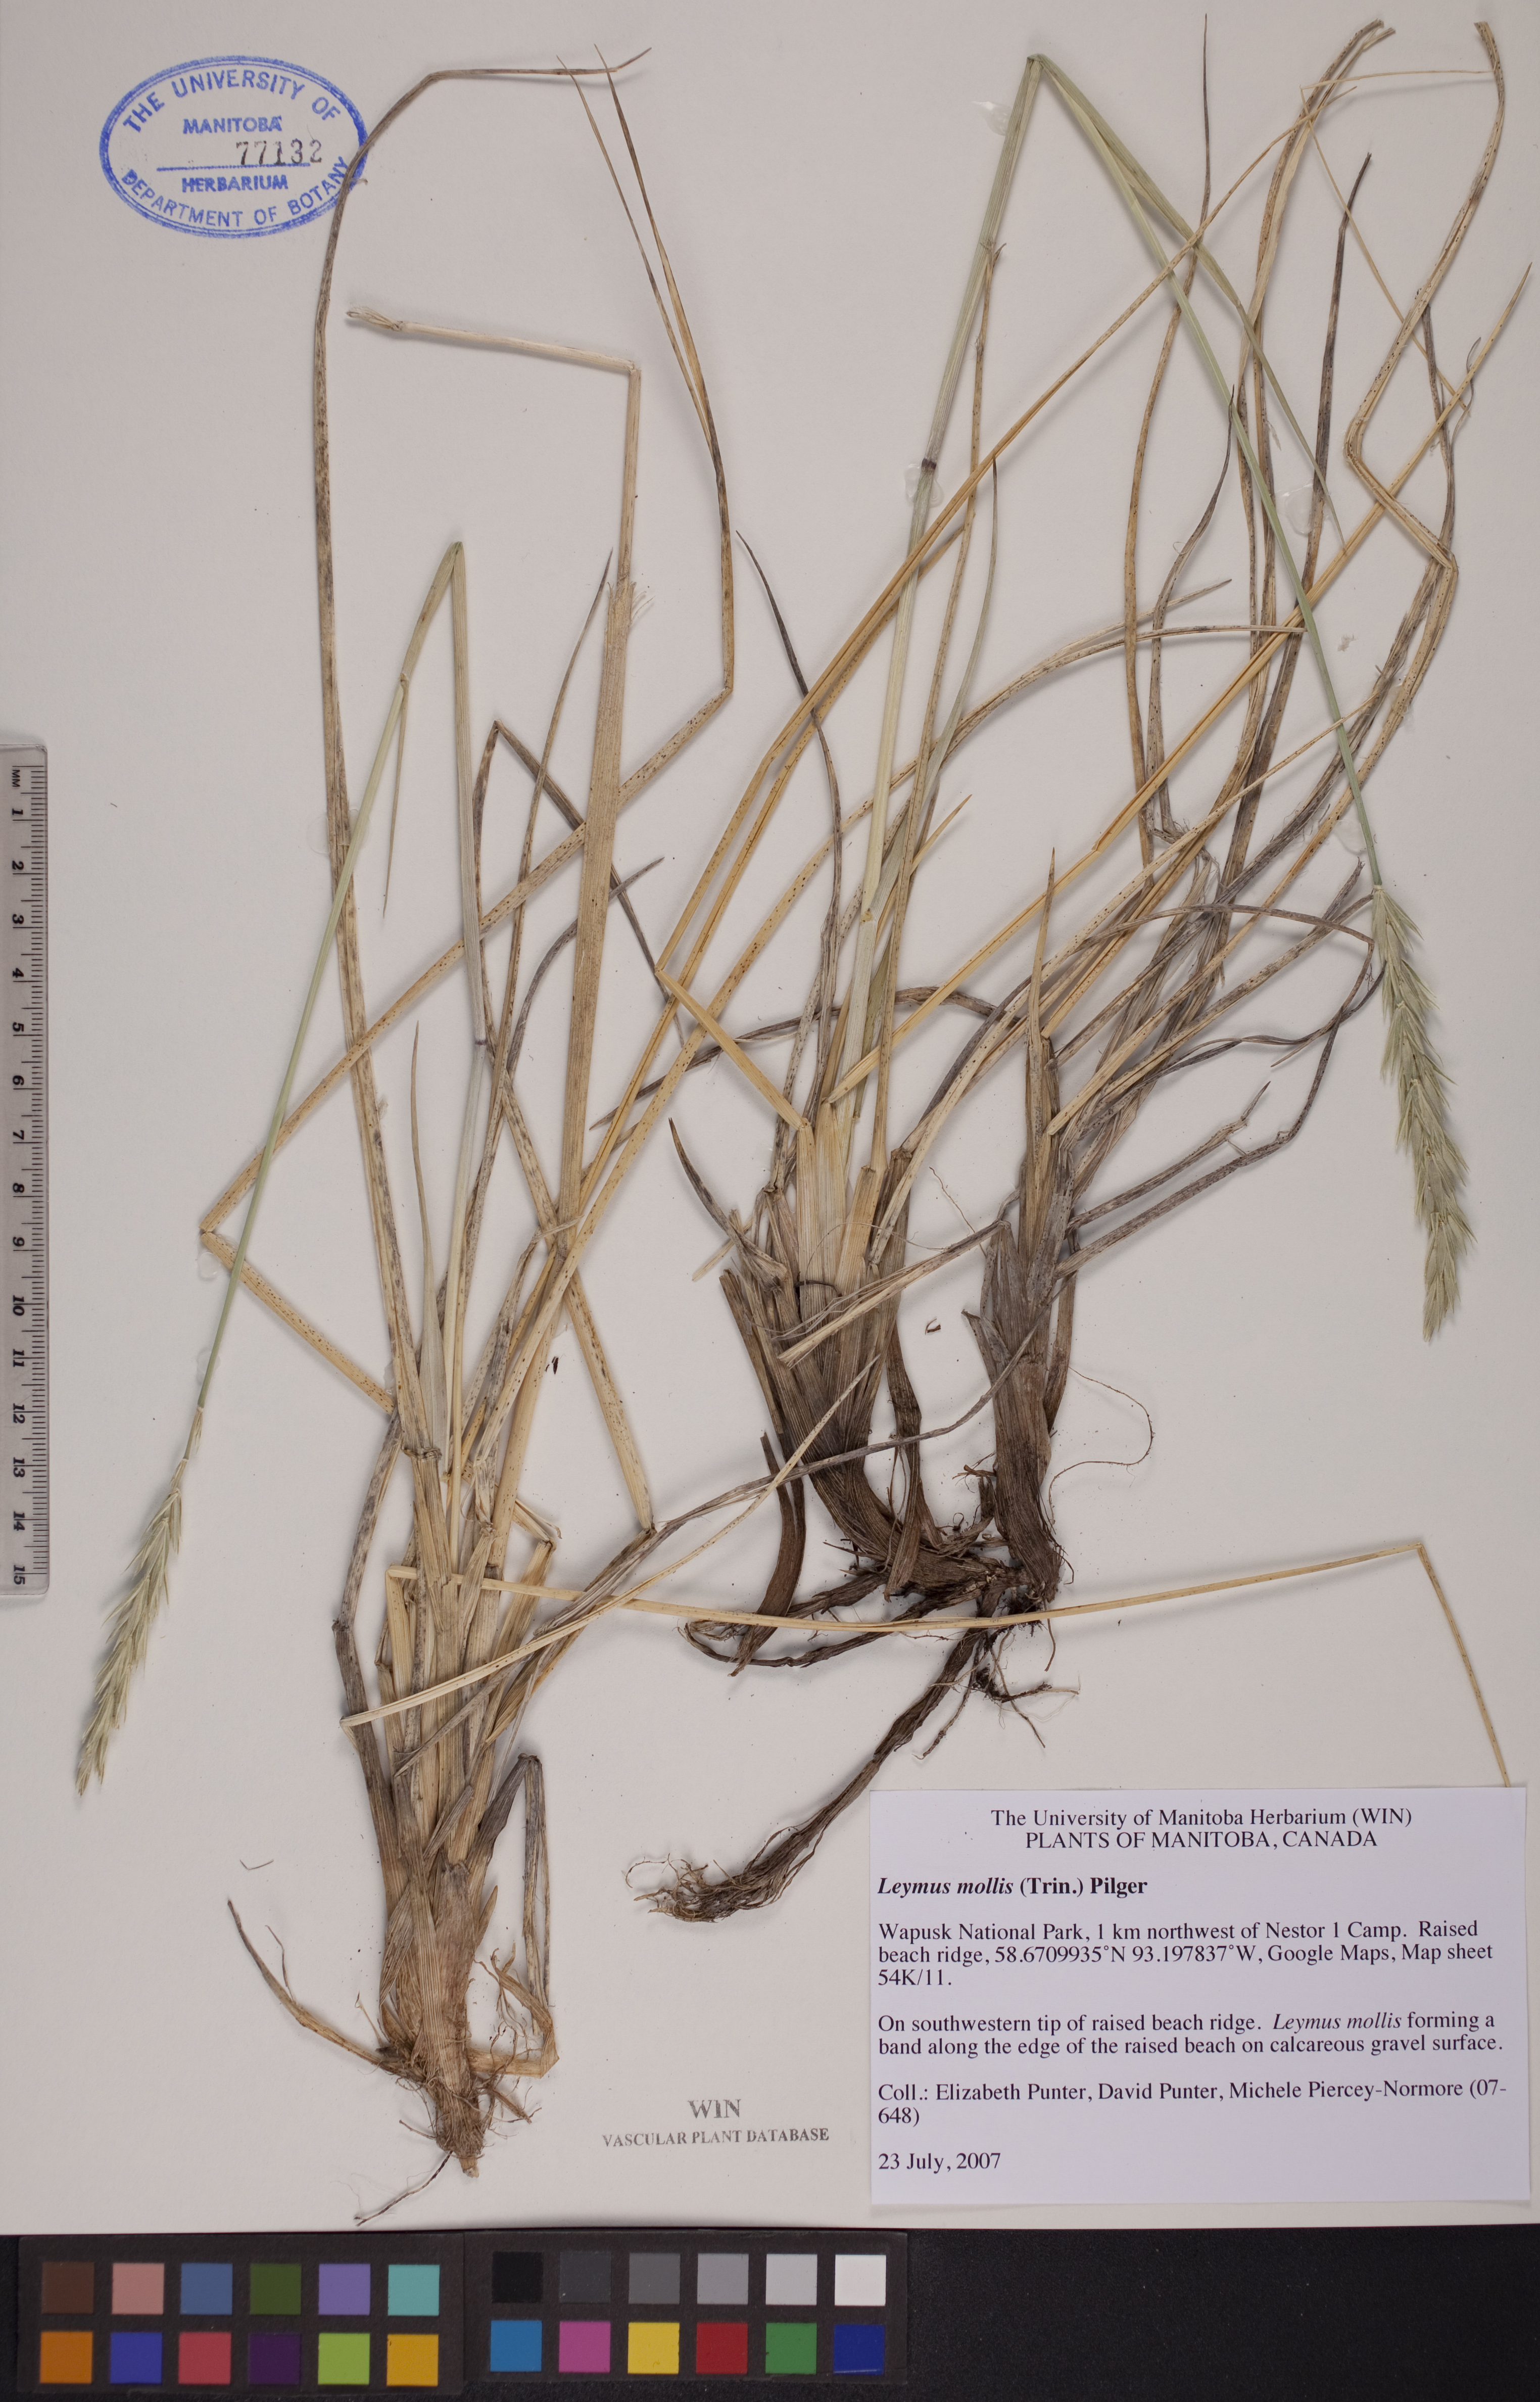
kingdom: Plantae
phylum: Tracheophyta
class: Liliopsida
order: Poales
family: Poaceae
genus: Leymus
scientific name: Leymus mollis
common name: American dune grass
